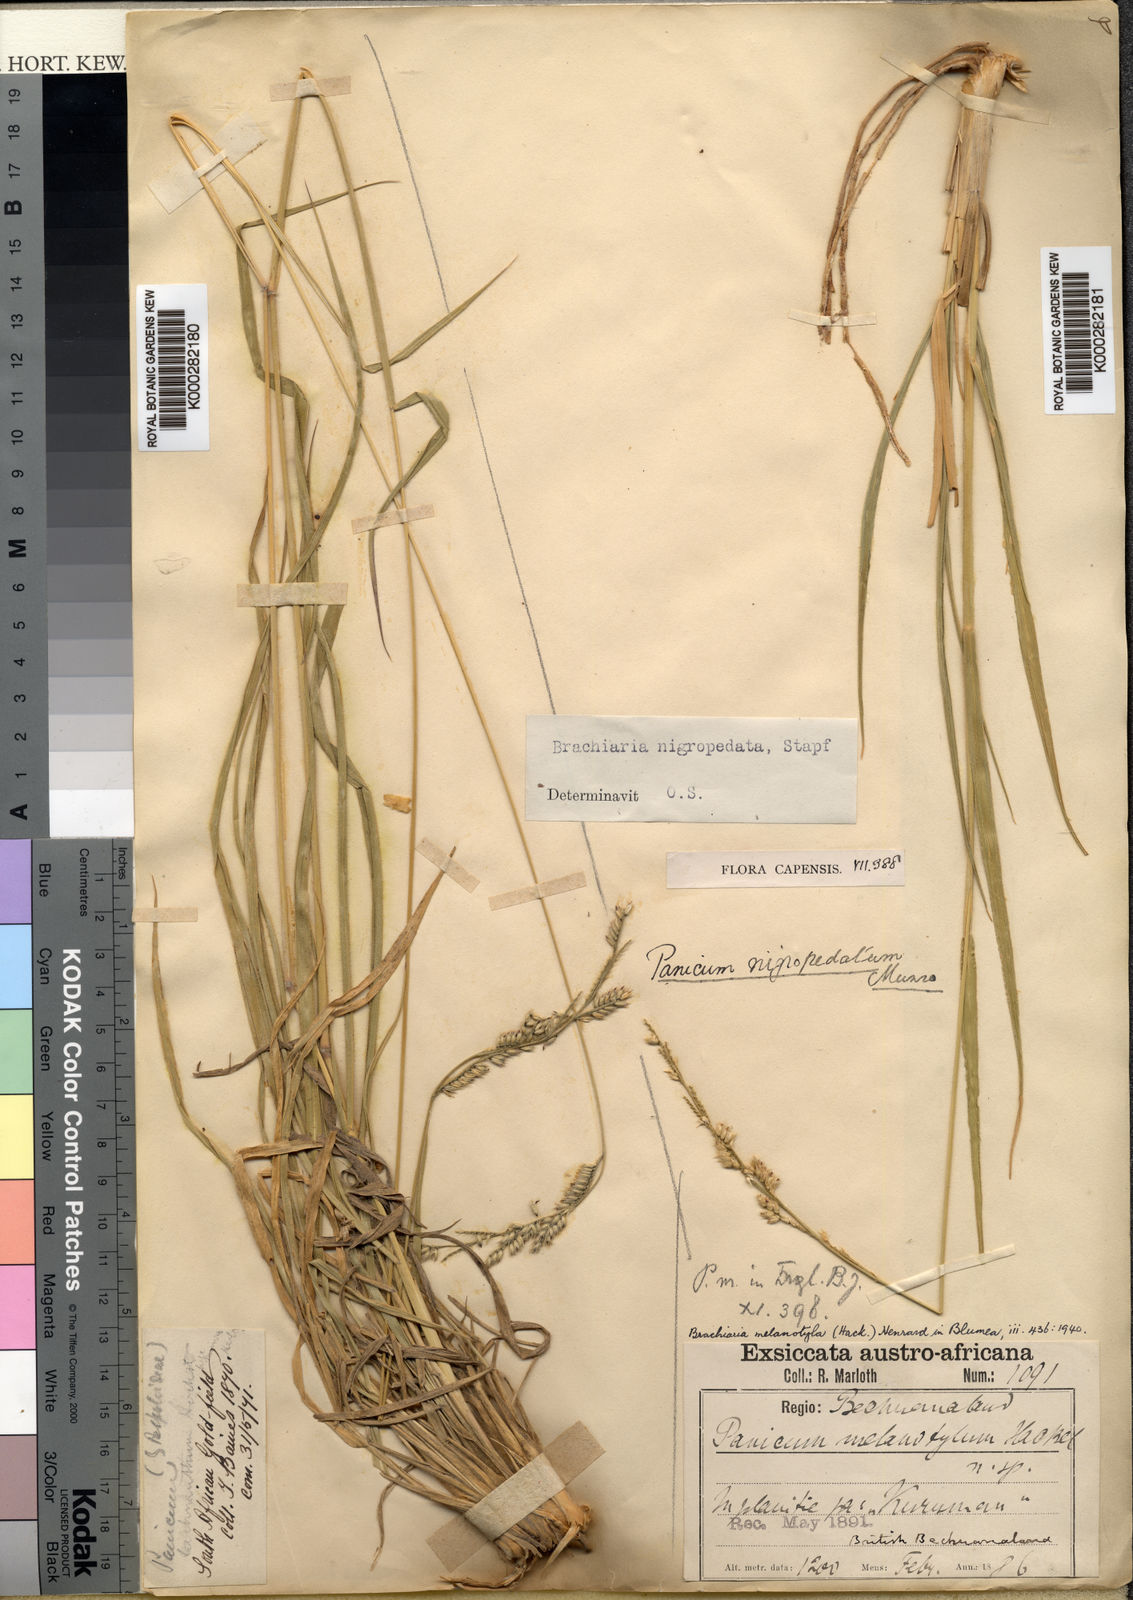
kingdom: Plantae
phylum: Tracheophyta
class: Liliopsida
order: Poales
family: Poaceae
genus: Urochloa
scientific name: Urochloa nigropedata
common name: Spotted signal grass
